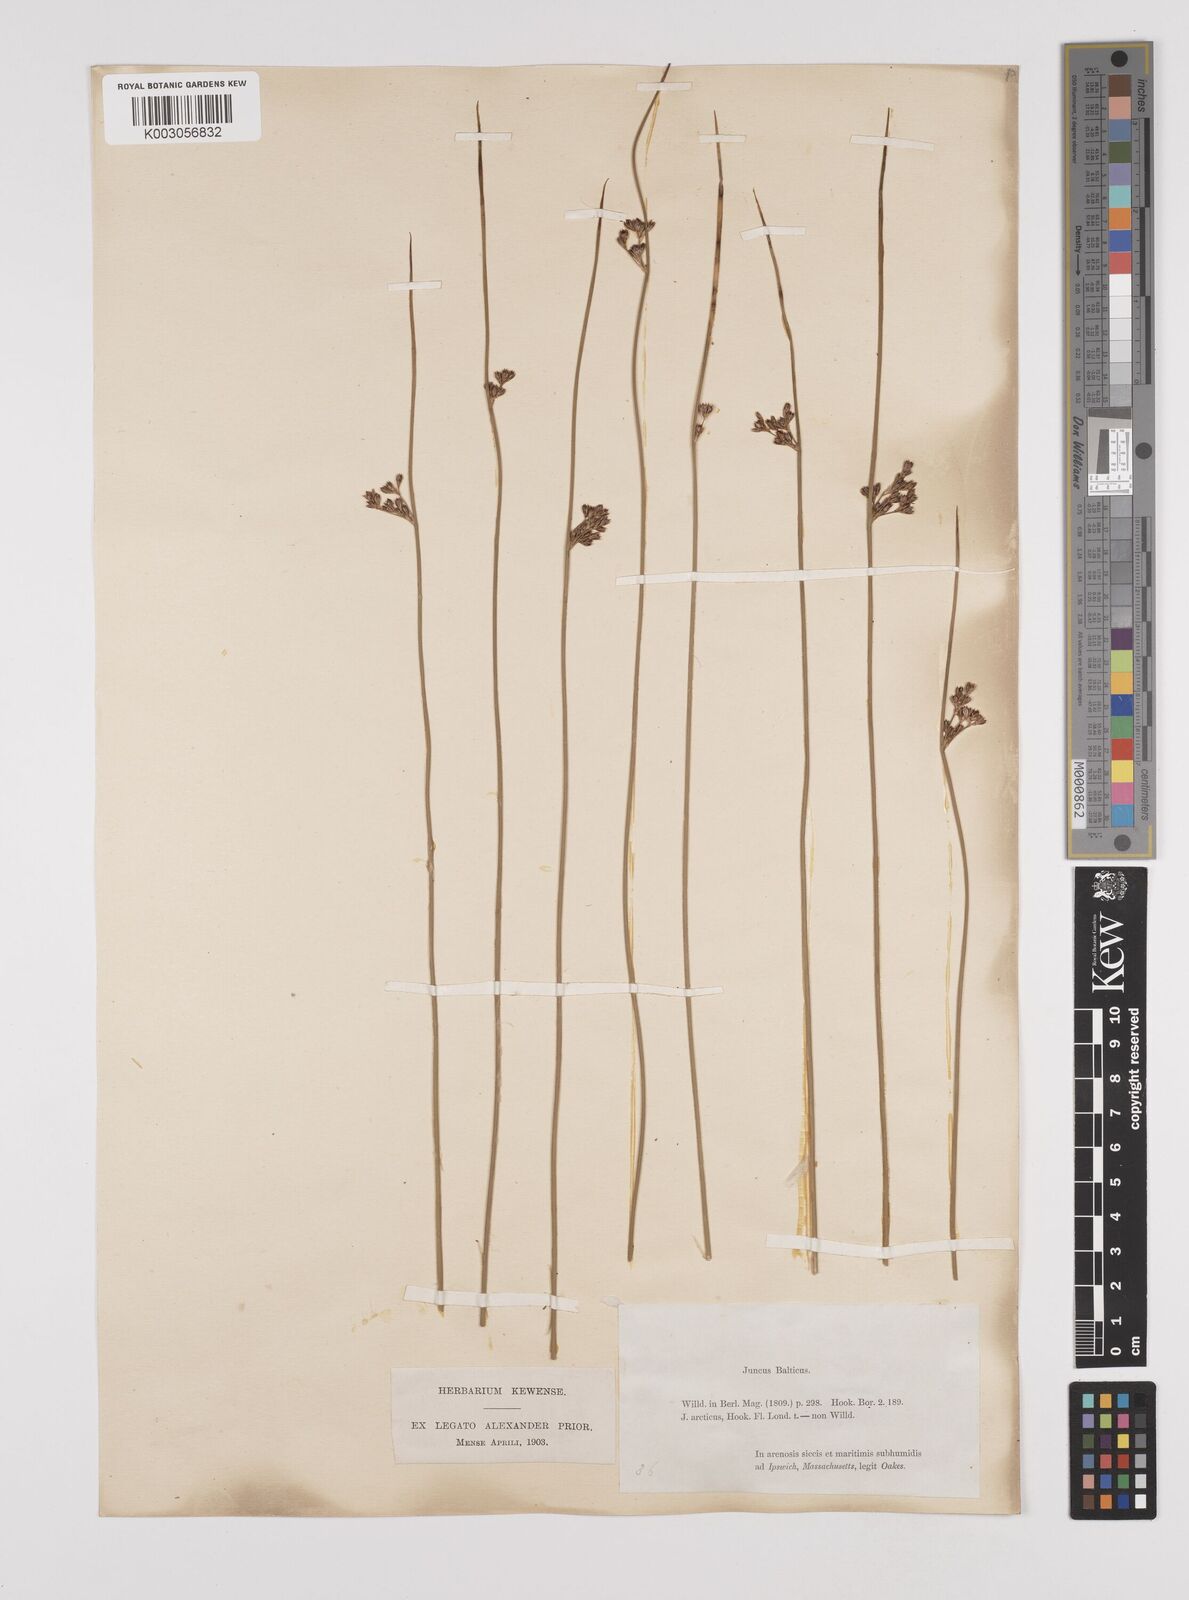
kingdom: Plantae
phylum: Tracheophyta
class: Liliopsida
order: Poales
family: Juncaceae
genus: Juncus
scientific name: Juncus balticus
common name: Baltic rush
